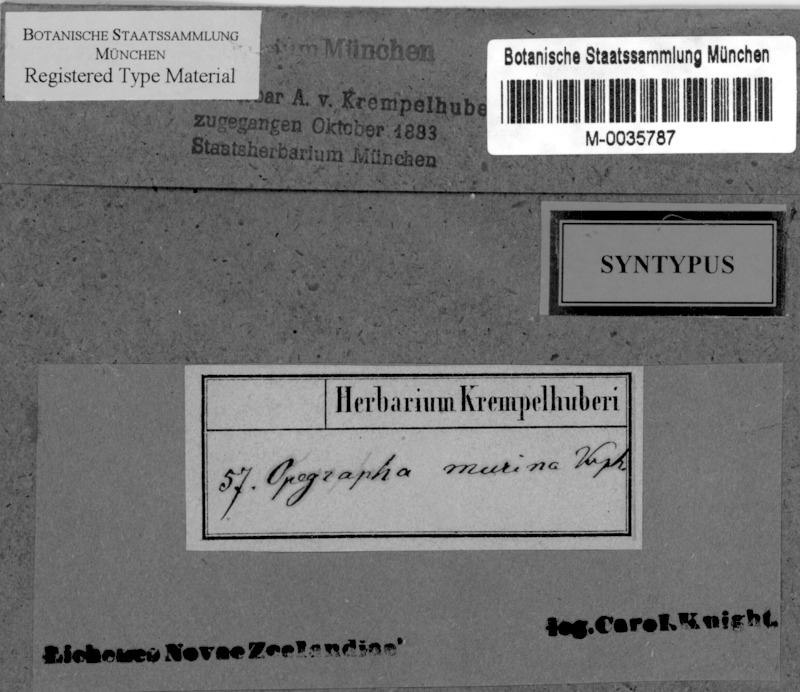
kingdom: Fungi
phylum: Ascomycota
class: Arthoniomycetes
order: Arthoniales
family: Opegraphaceae
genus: Opegrapha
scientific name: Opegrapha
